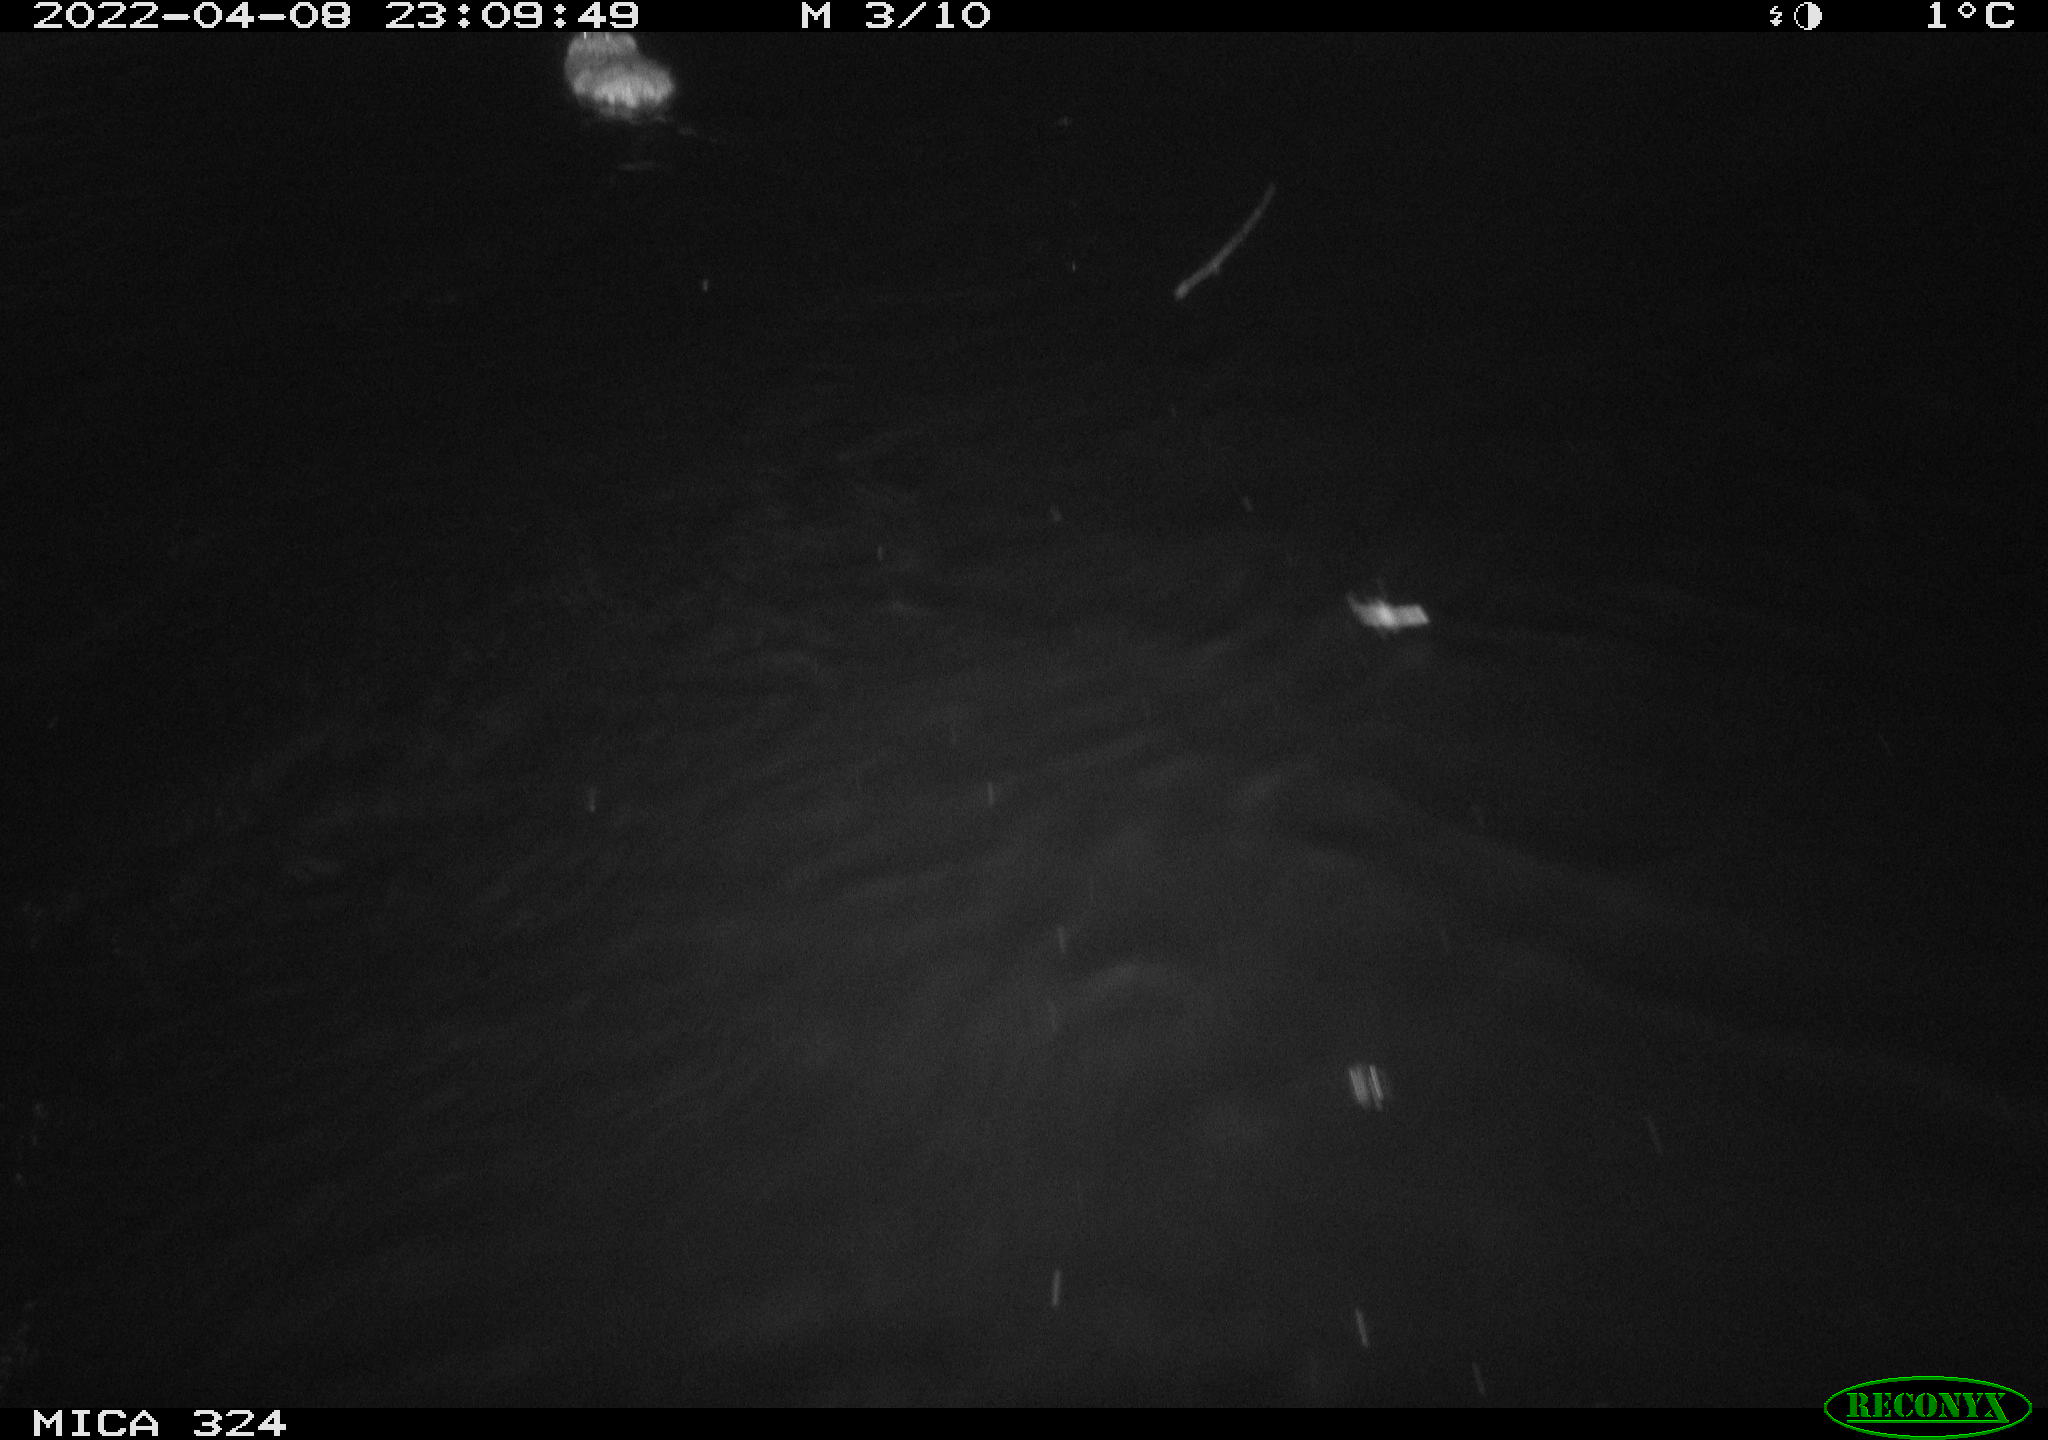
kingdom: Animalia
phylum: Chordata
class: Mammalia
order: Rodentia
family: Cricetidae
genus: Ondatra
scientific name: Ondatra zibethicus
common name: Muskrat
